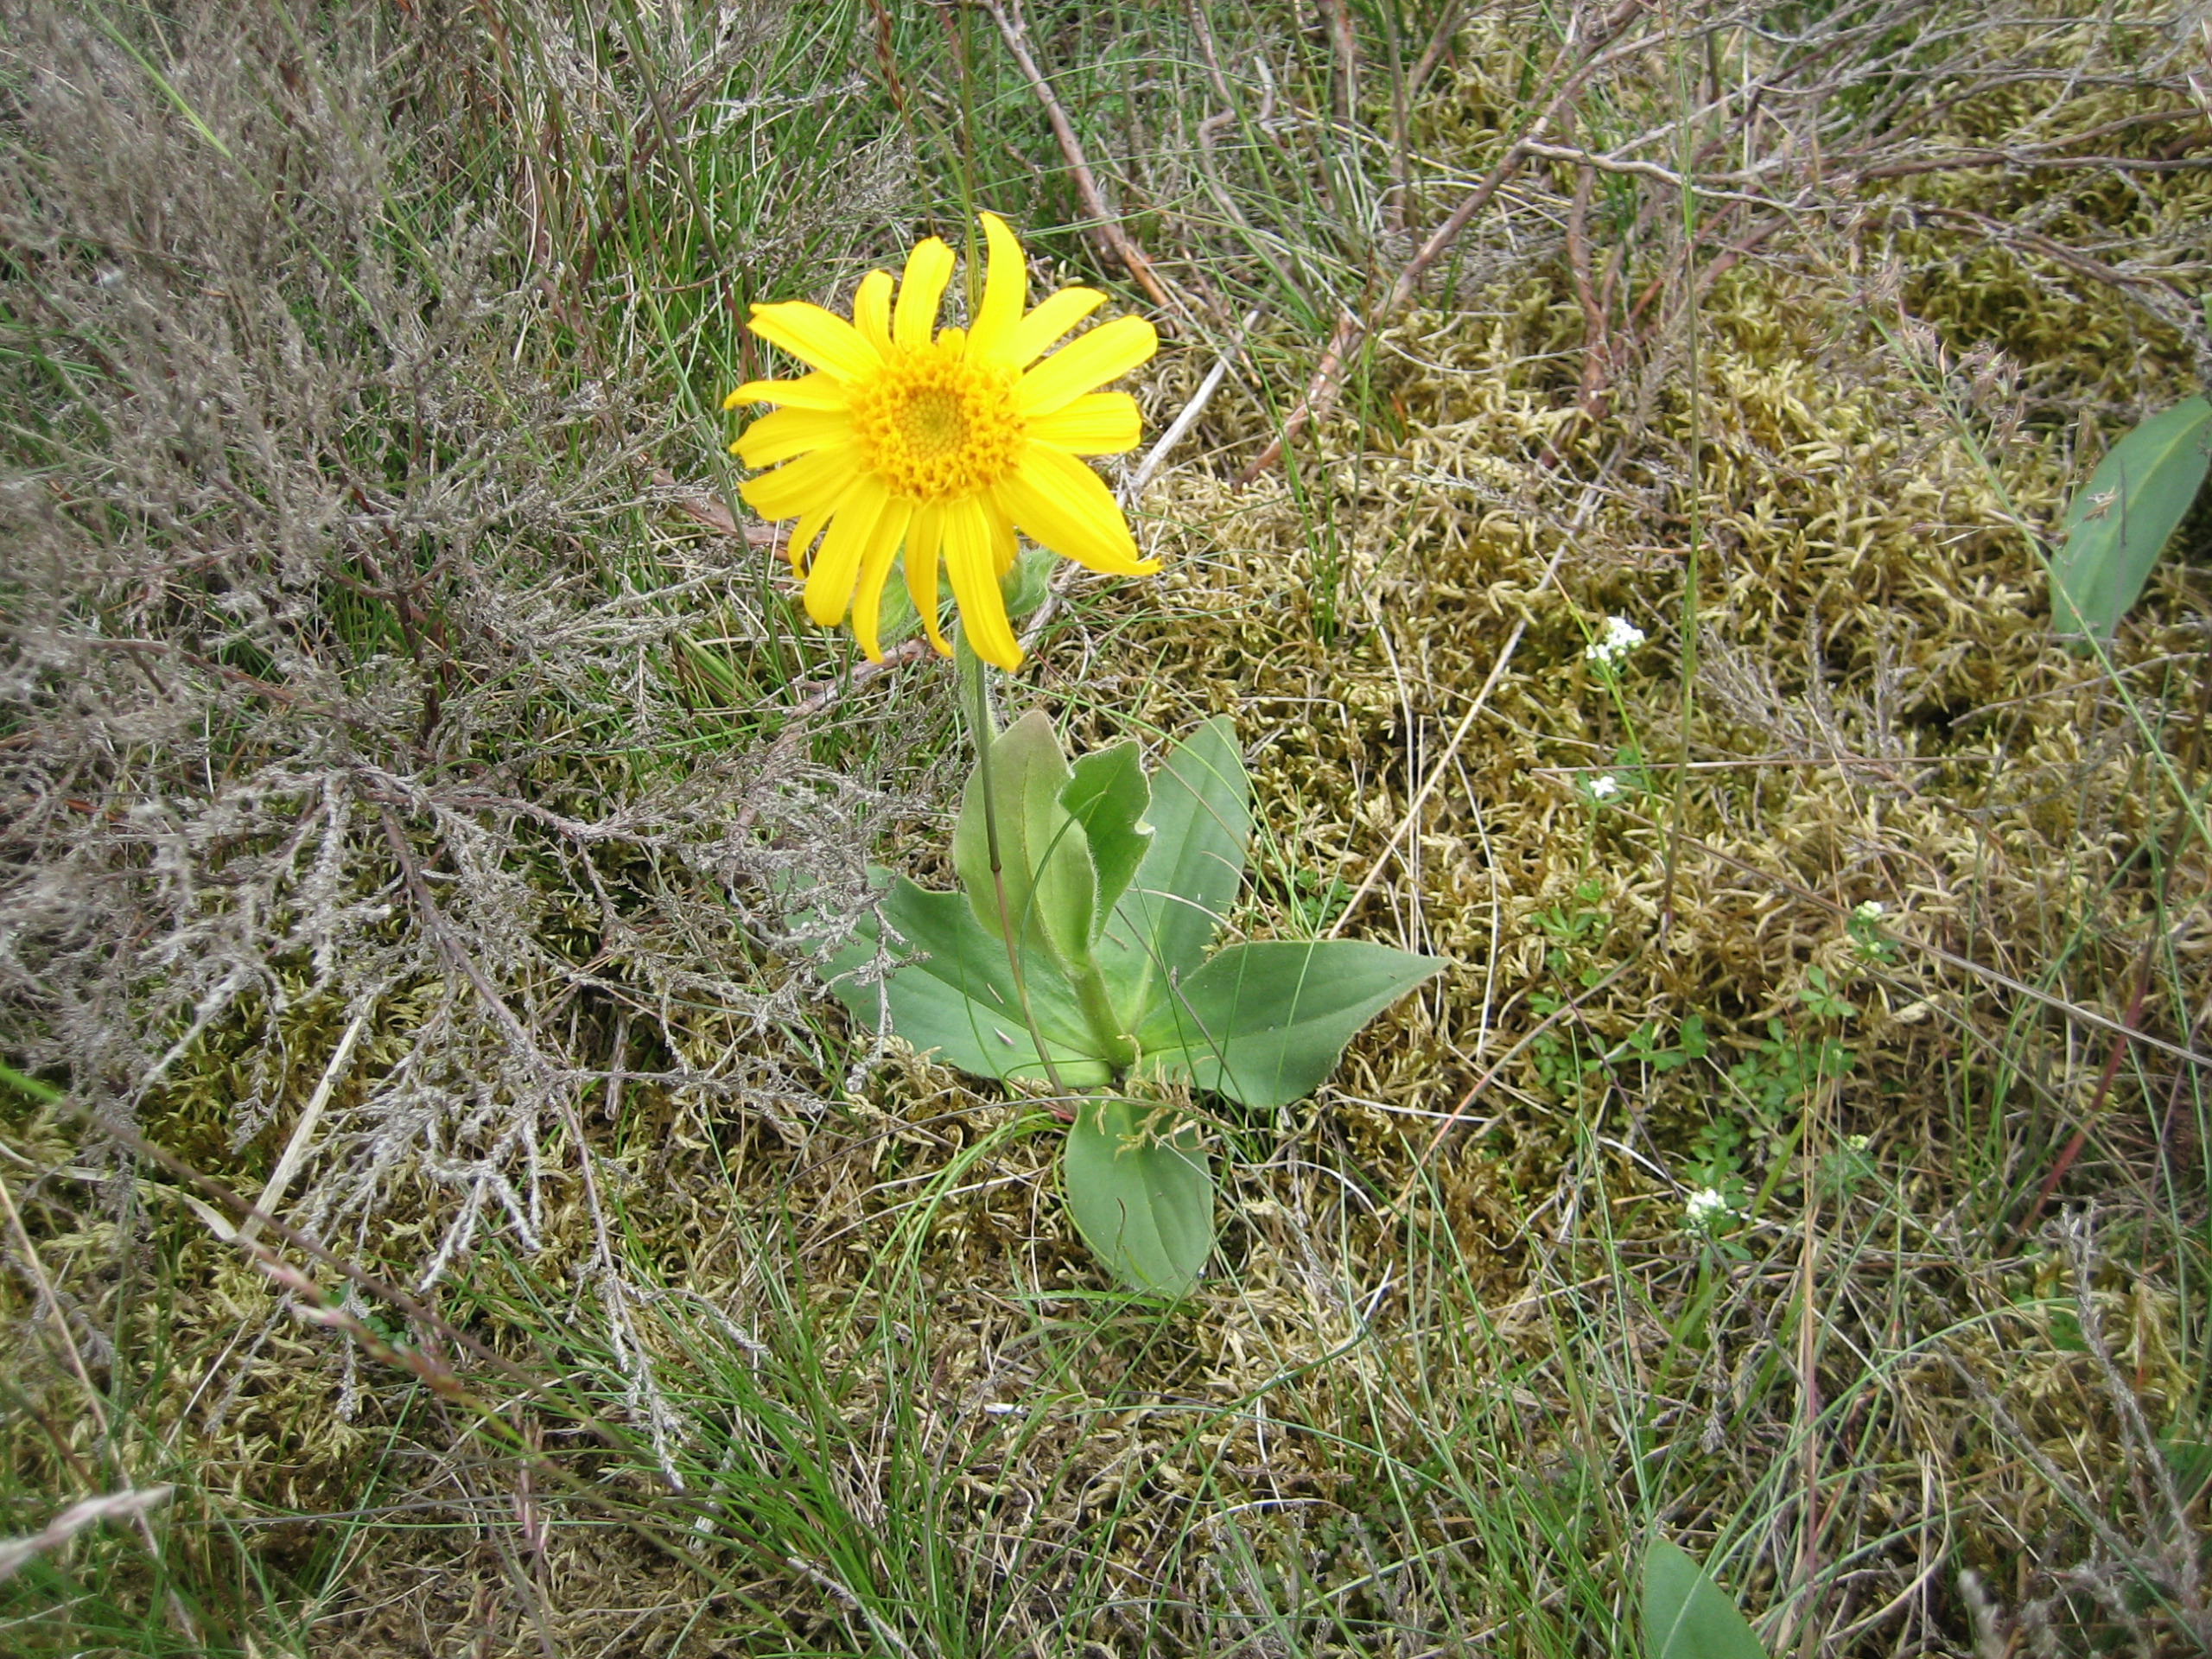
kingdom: Plantae
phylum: Tracheophyta
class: Magnoliopsida
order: Asterales
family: Asteraceae
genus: Arnica
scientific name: Arnica montana
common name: Guldblomme
